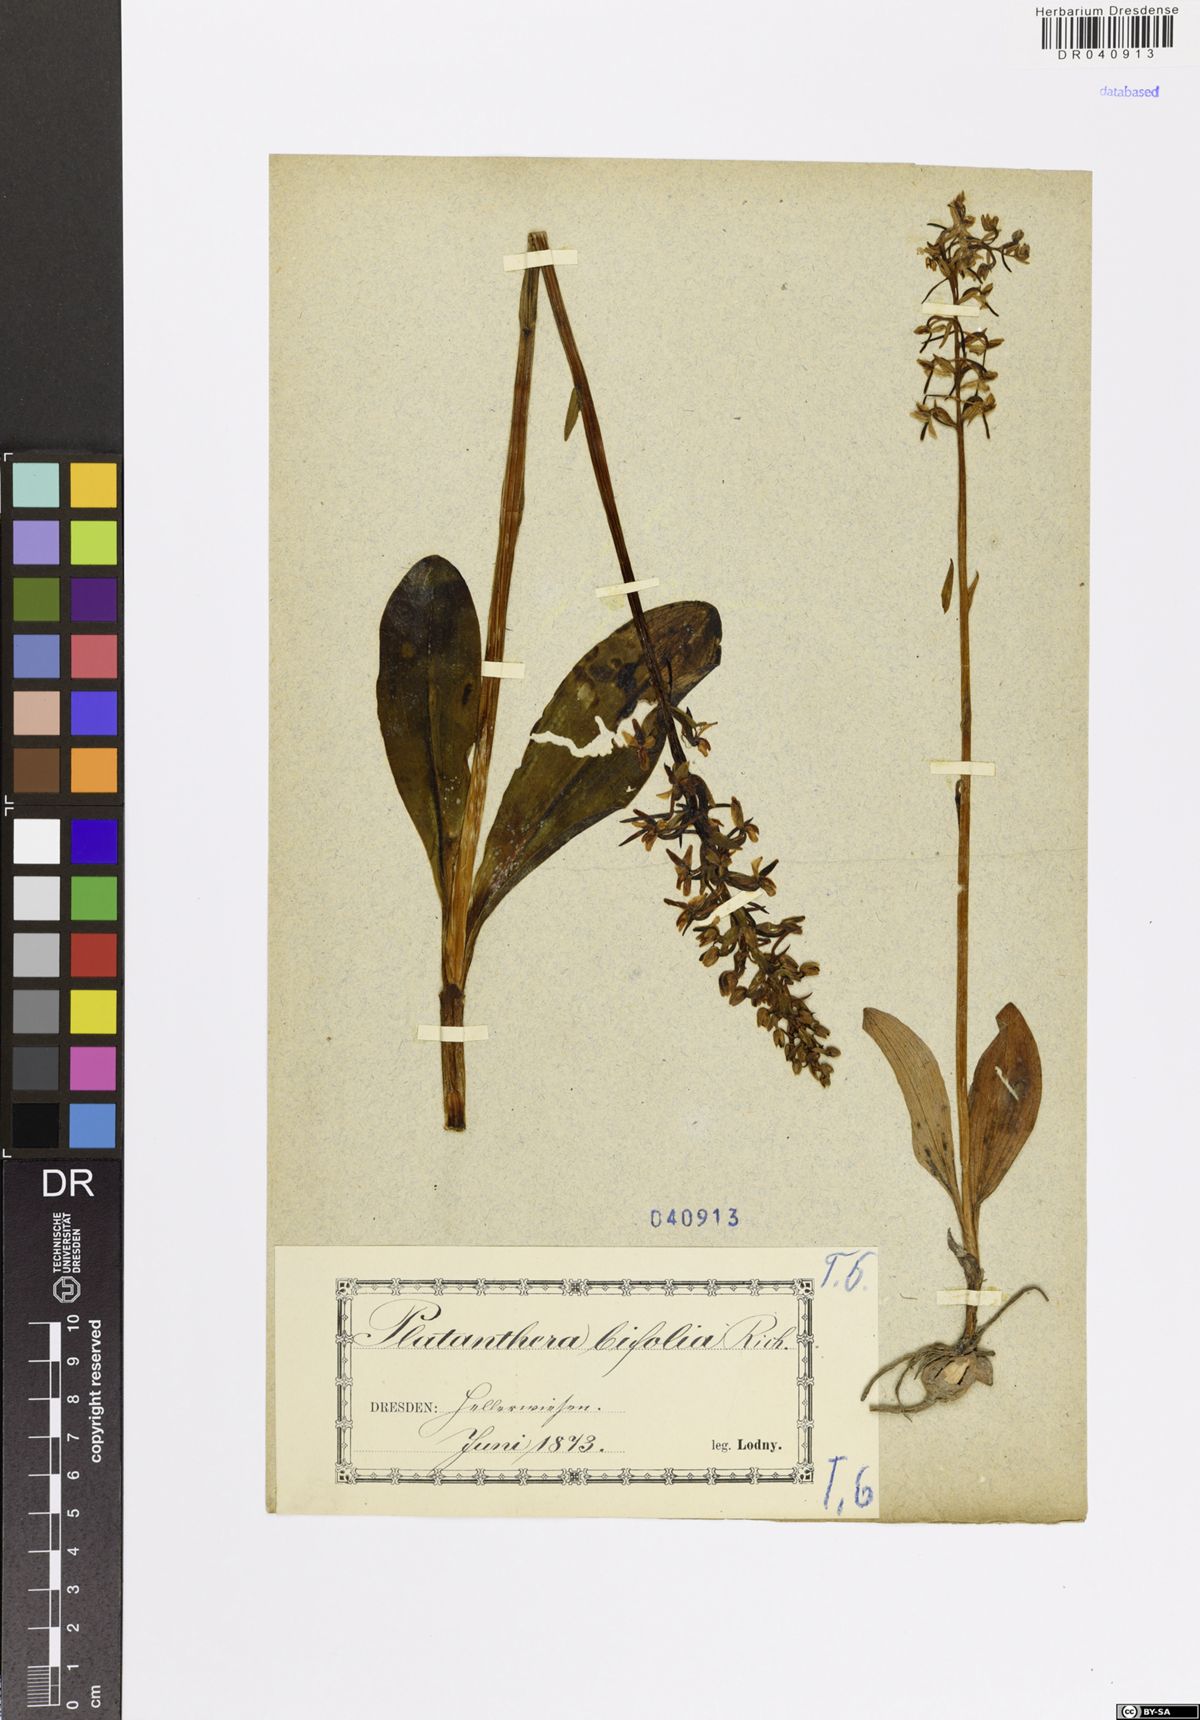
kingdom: Plantae
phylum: Tracheophyta
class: Liliopsida
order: Asparagales
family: Orchidaceae
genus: Platanthera
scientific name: Platanthera bifolia
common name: Lesser butterfly-orchid
